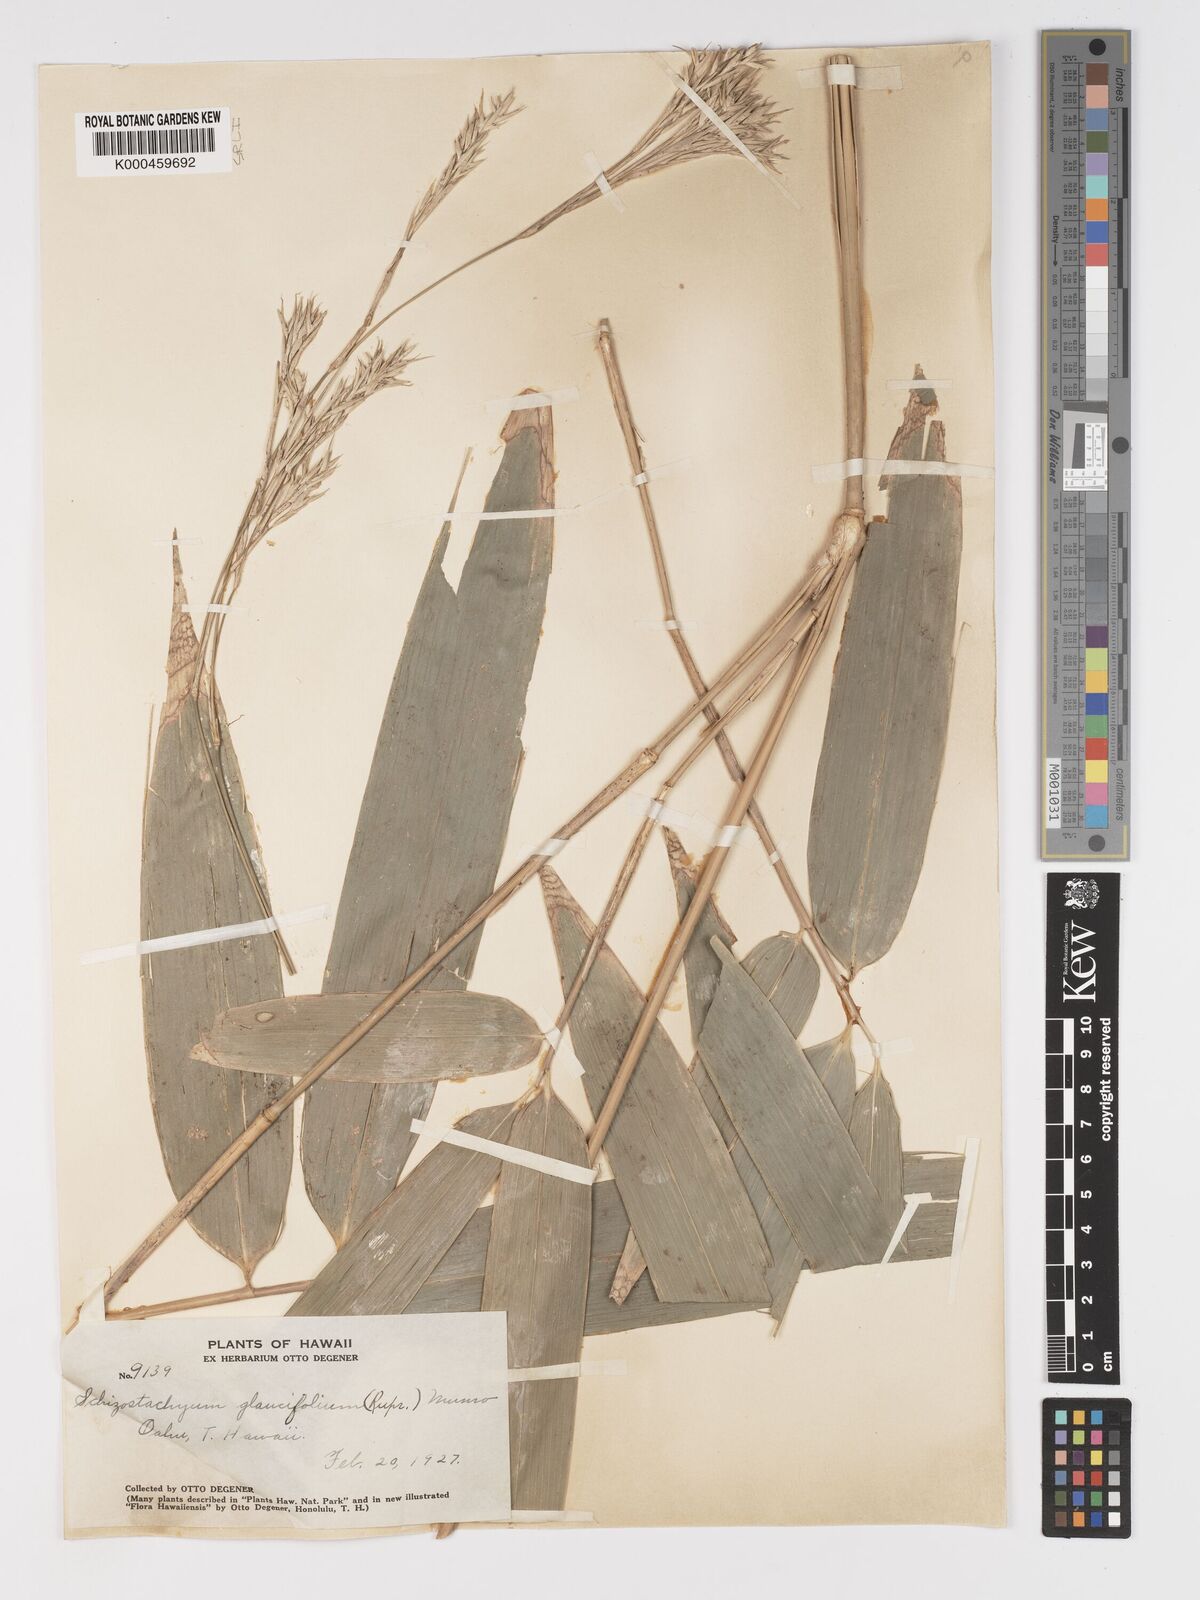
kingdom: Plantae
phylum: Tracheophyta
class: Liliopsida
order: Poales
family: Poaceae
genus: Schizostachyum
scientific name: Schizostachyum glaucifolium
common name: Polynesian 'ohe
